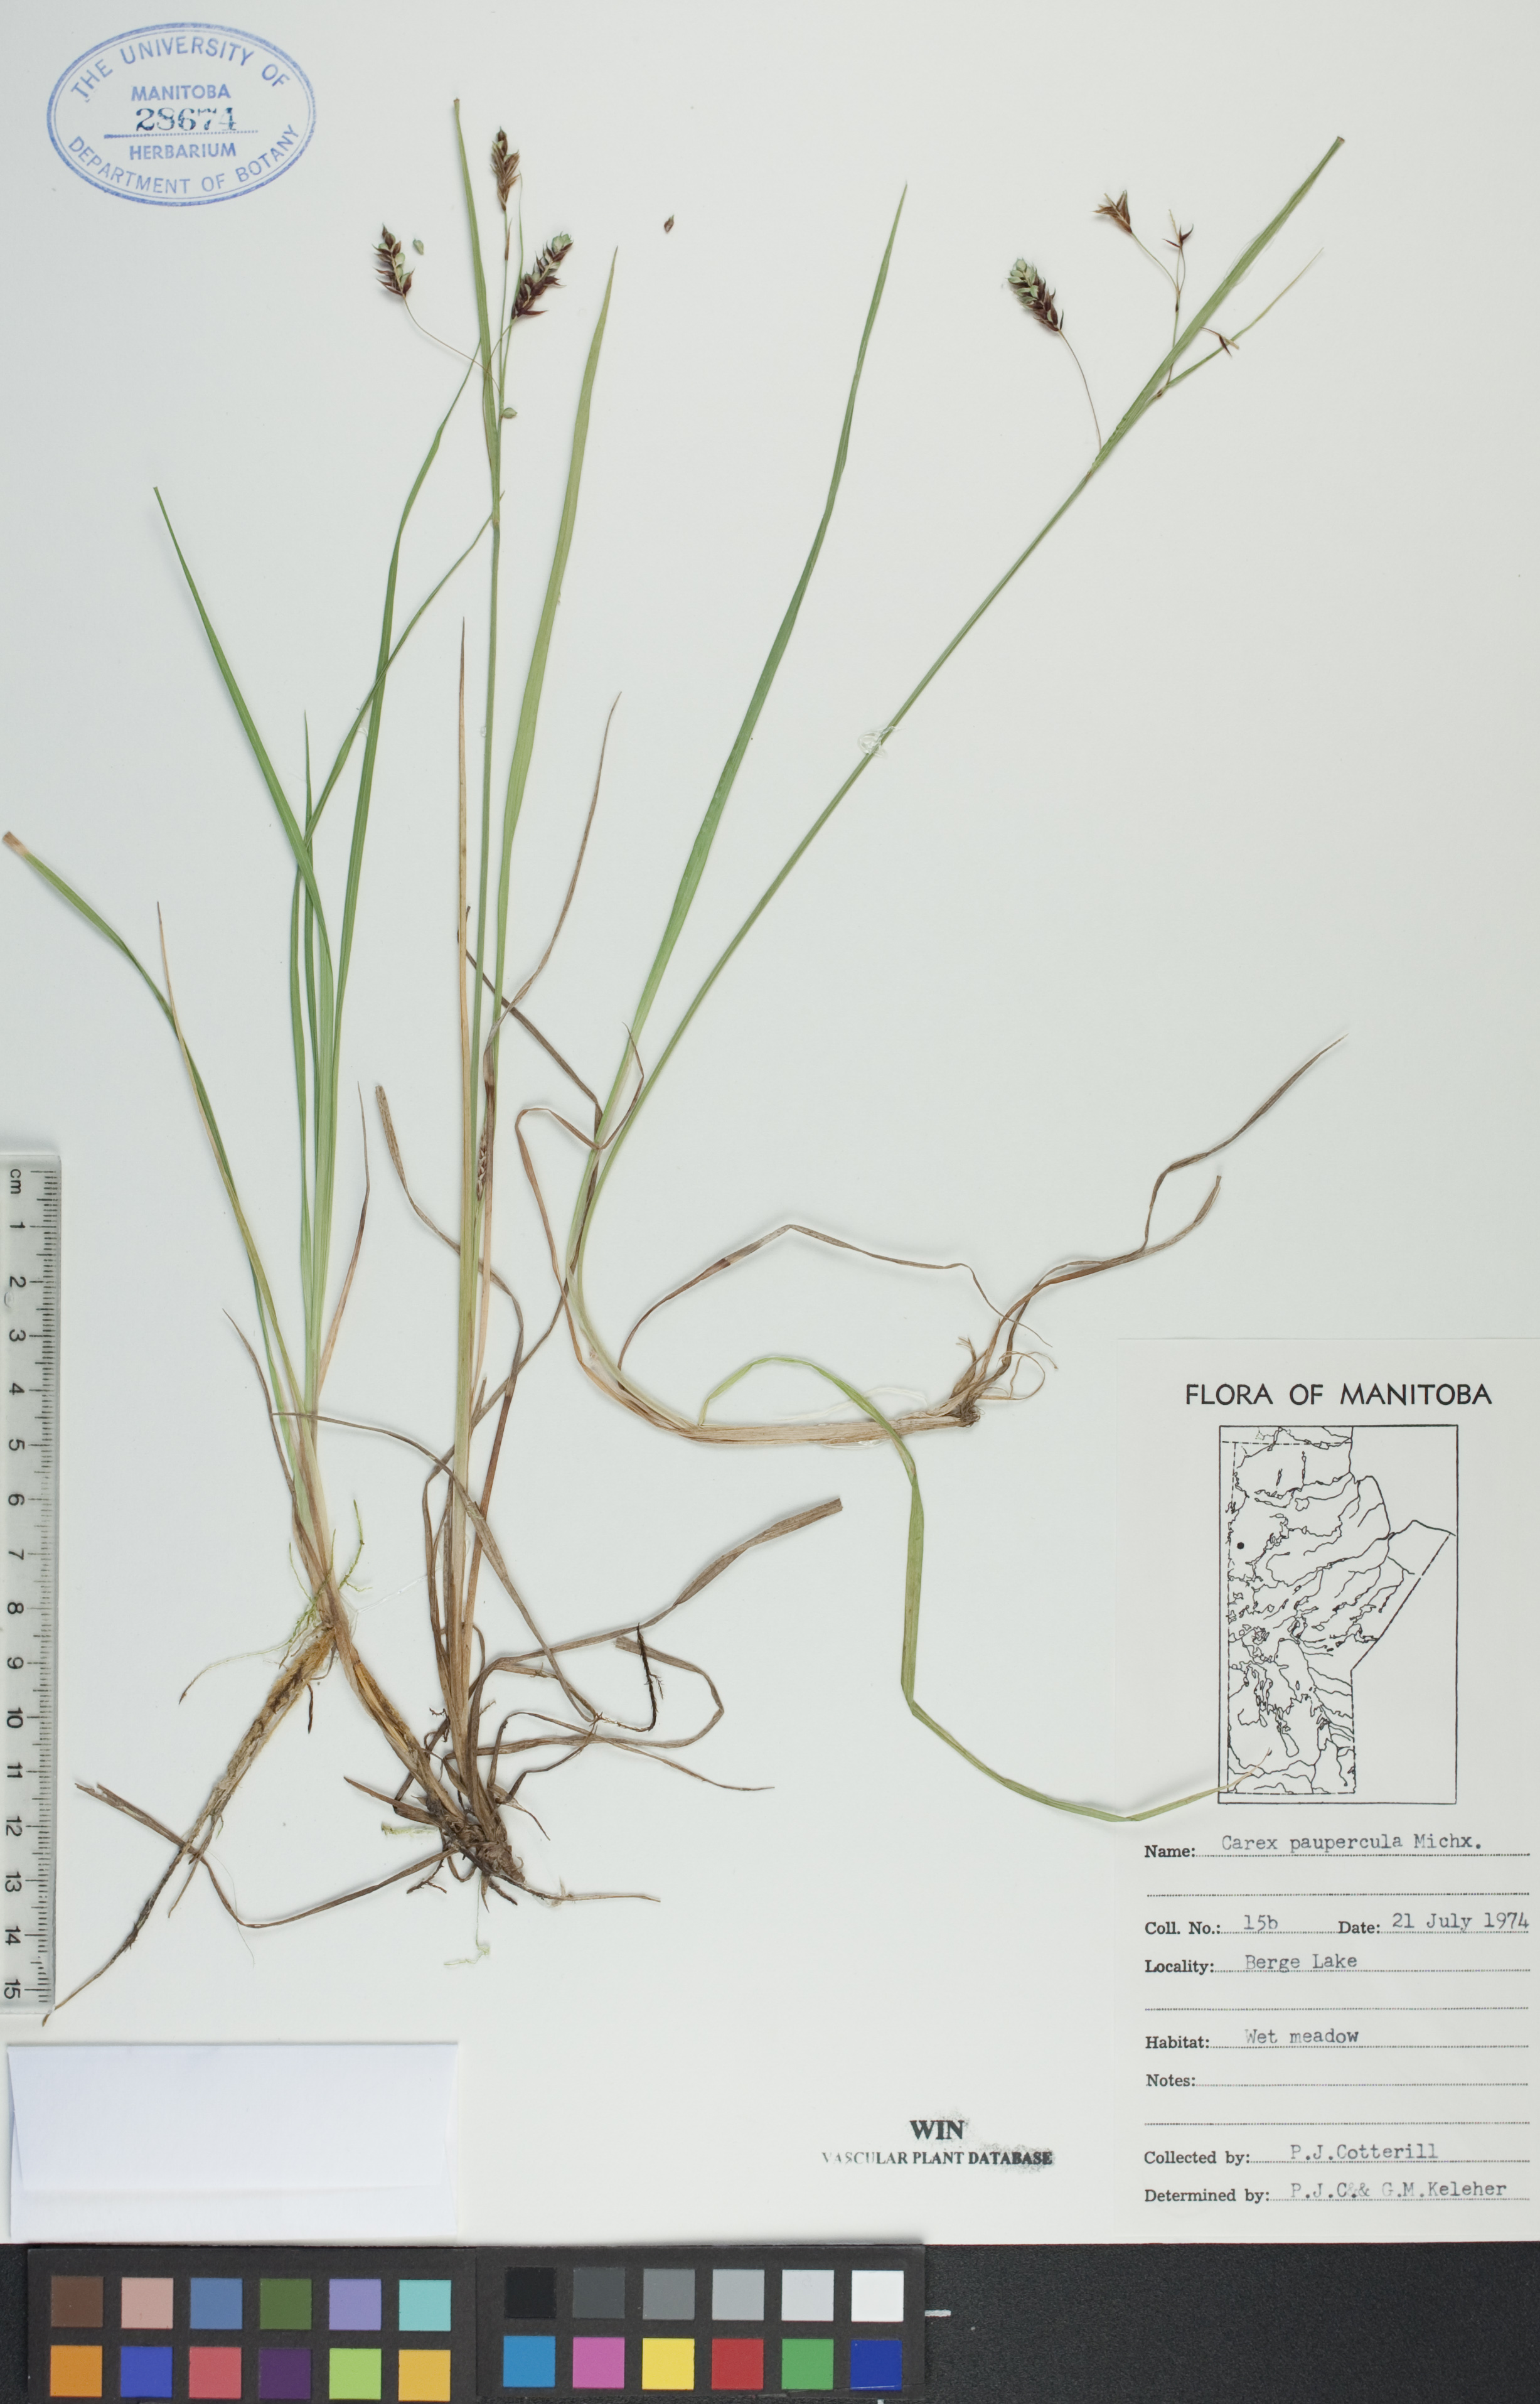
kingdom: Plantae
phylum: Tracheophyta
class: Liliopsida
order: Poales
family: Cyperaceae
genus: Carex
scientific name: Carex magellanica
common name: Bog sedge
